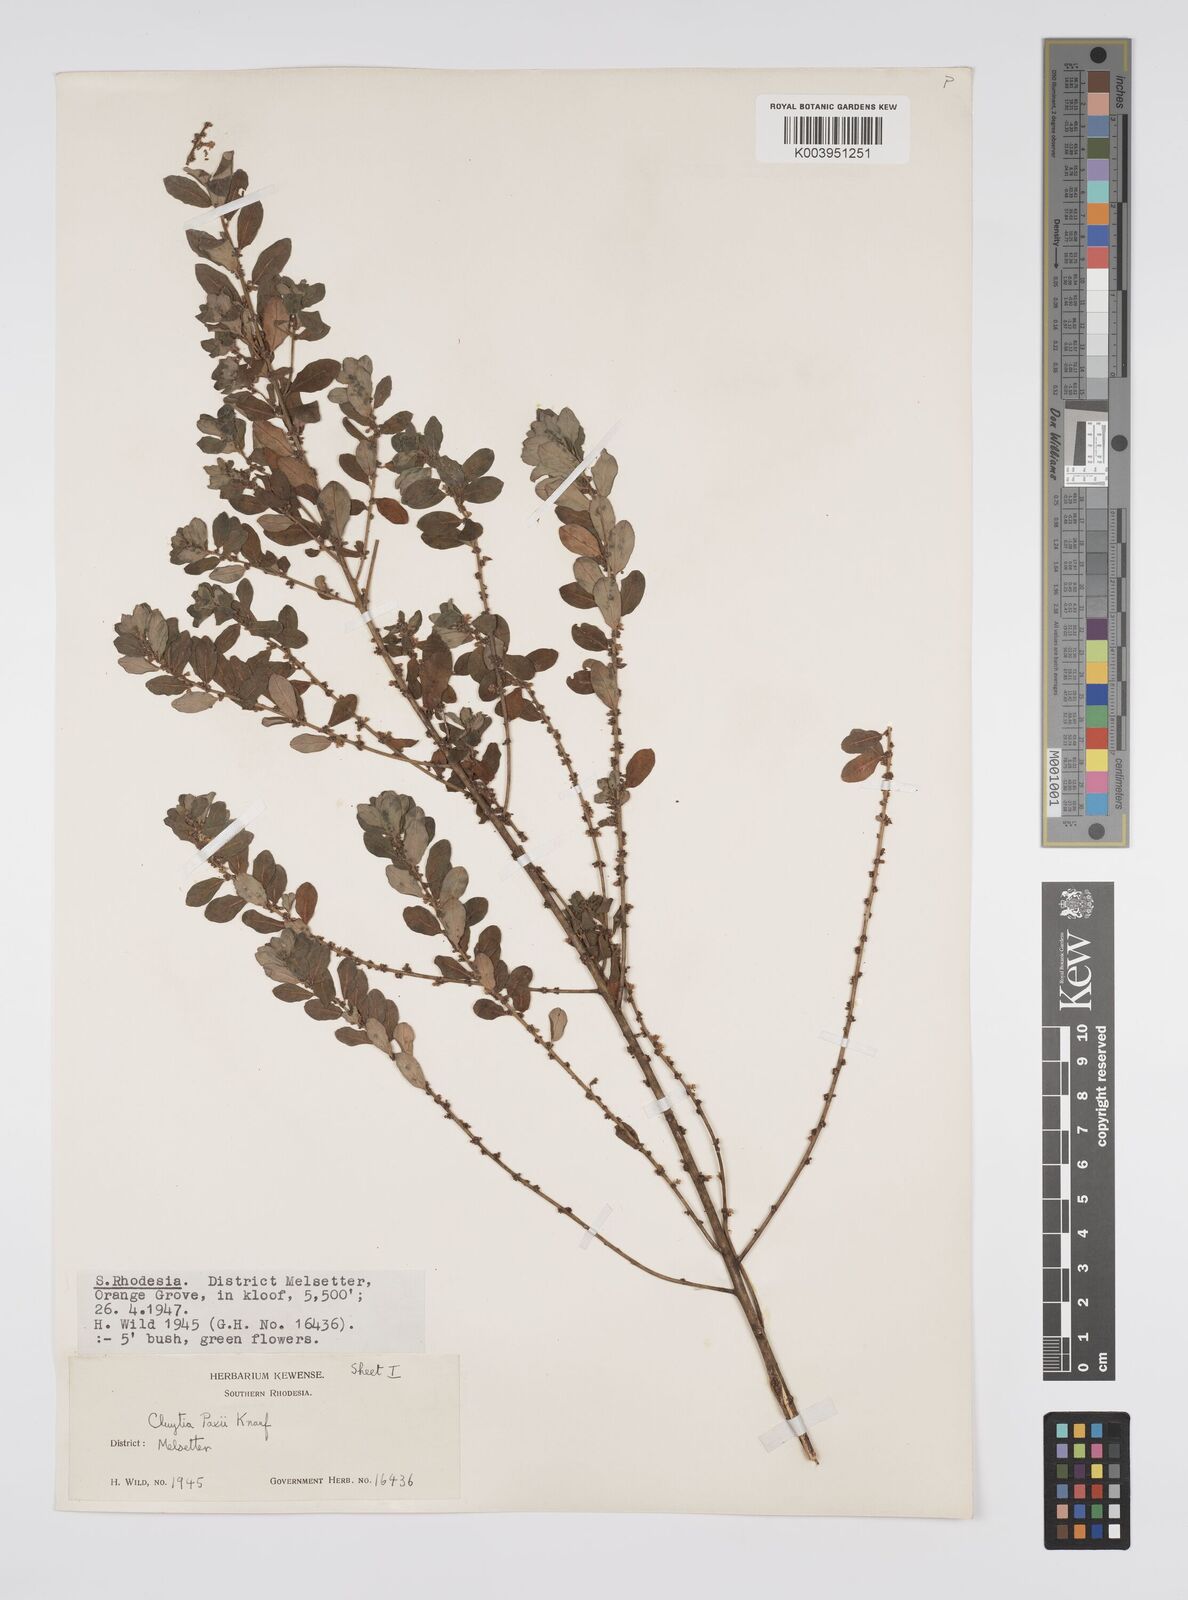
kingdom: Plantae
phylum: Tracheophyta
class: Magnoliopsida
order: Malpighiales
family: Peraceae
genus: Clutia
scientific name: Clutia paxii
